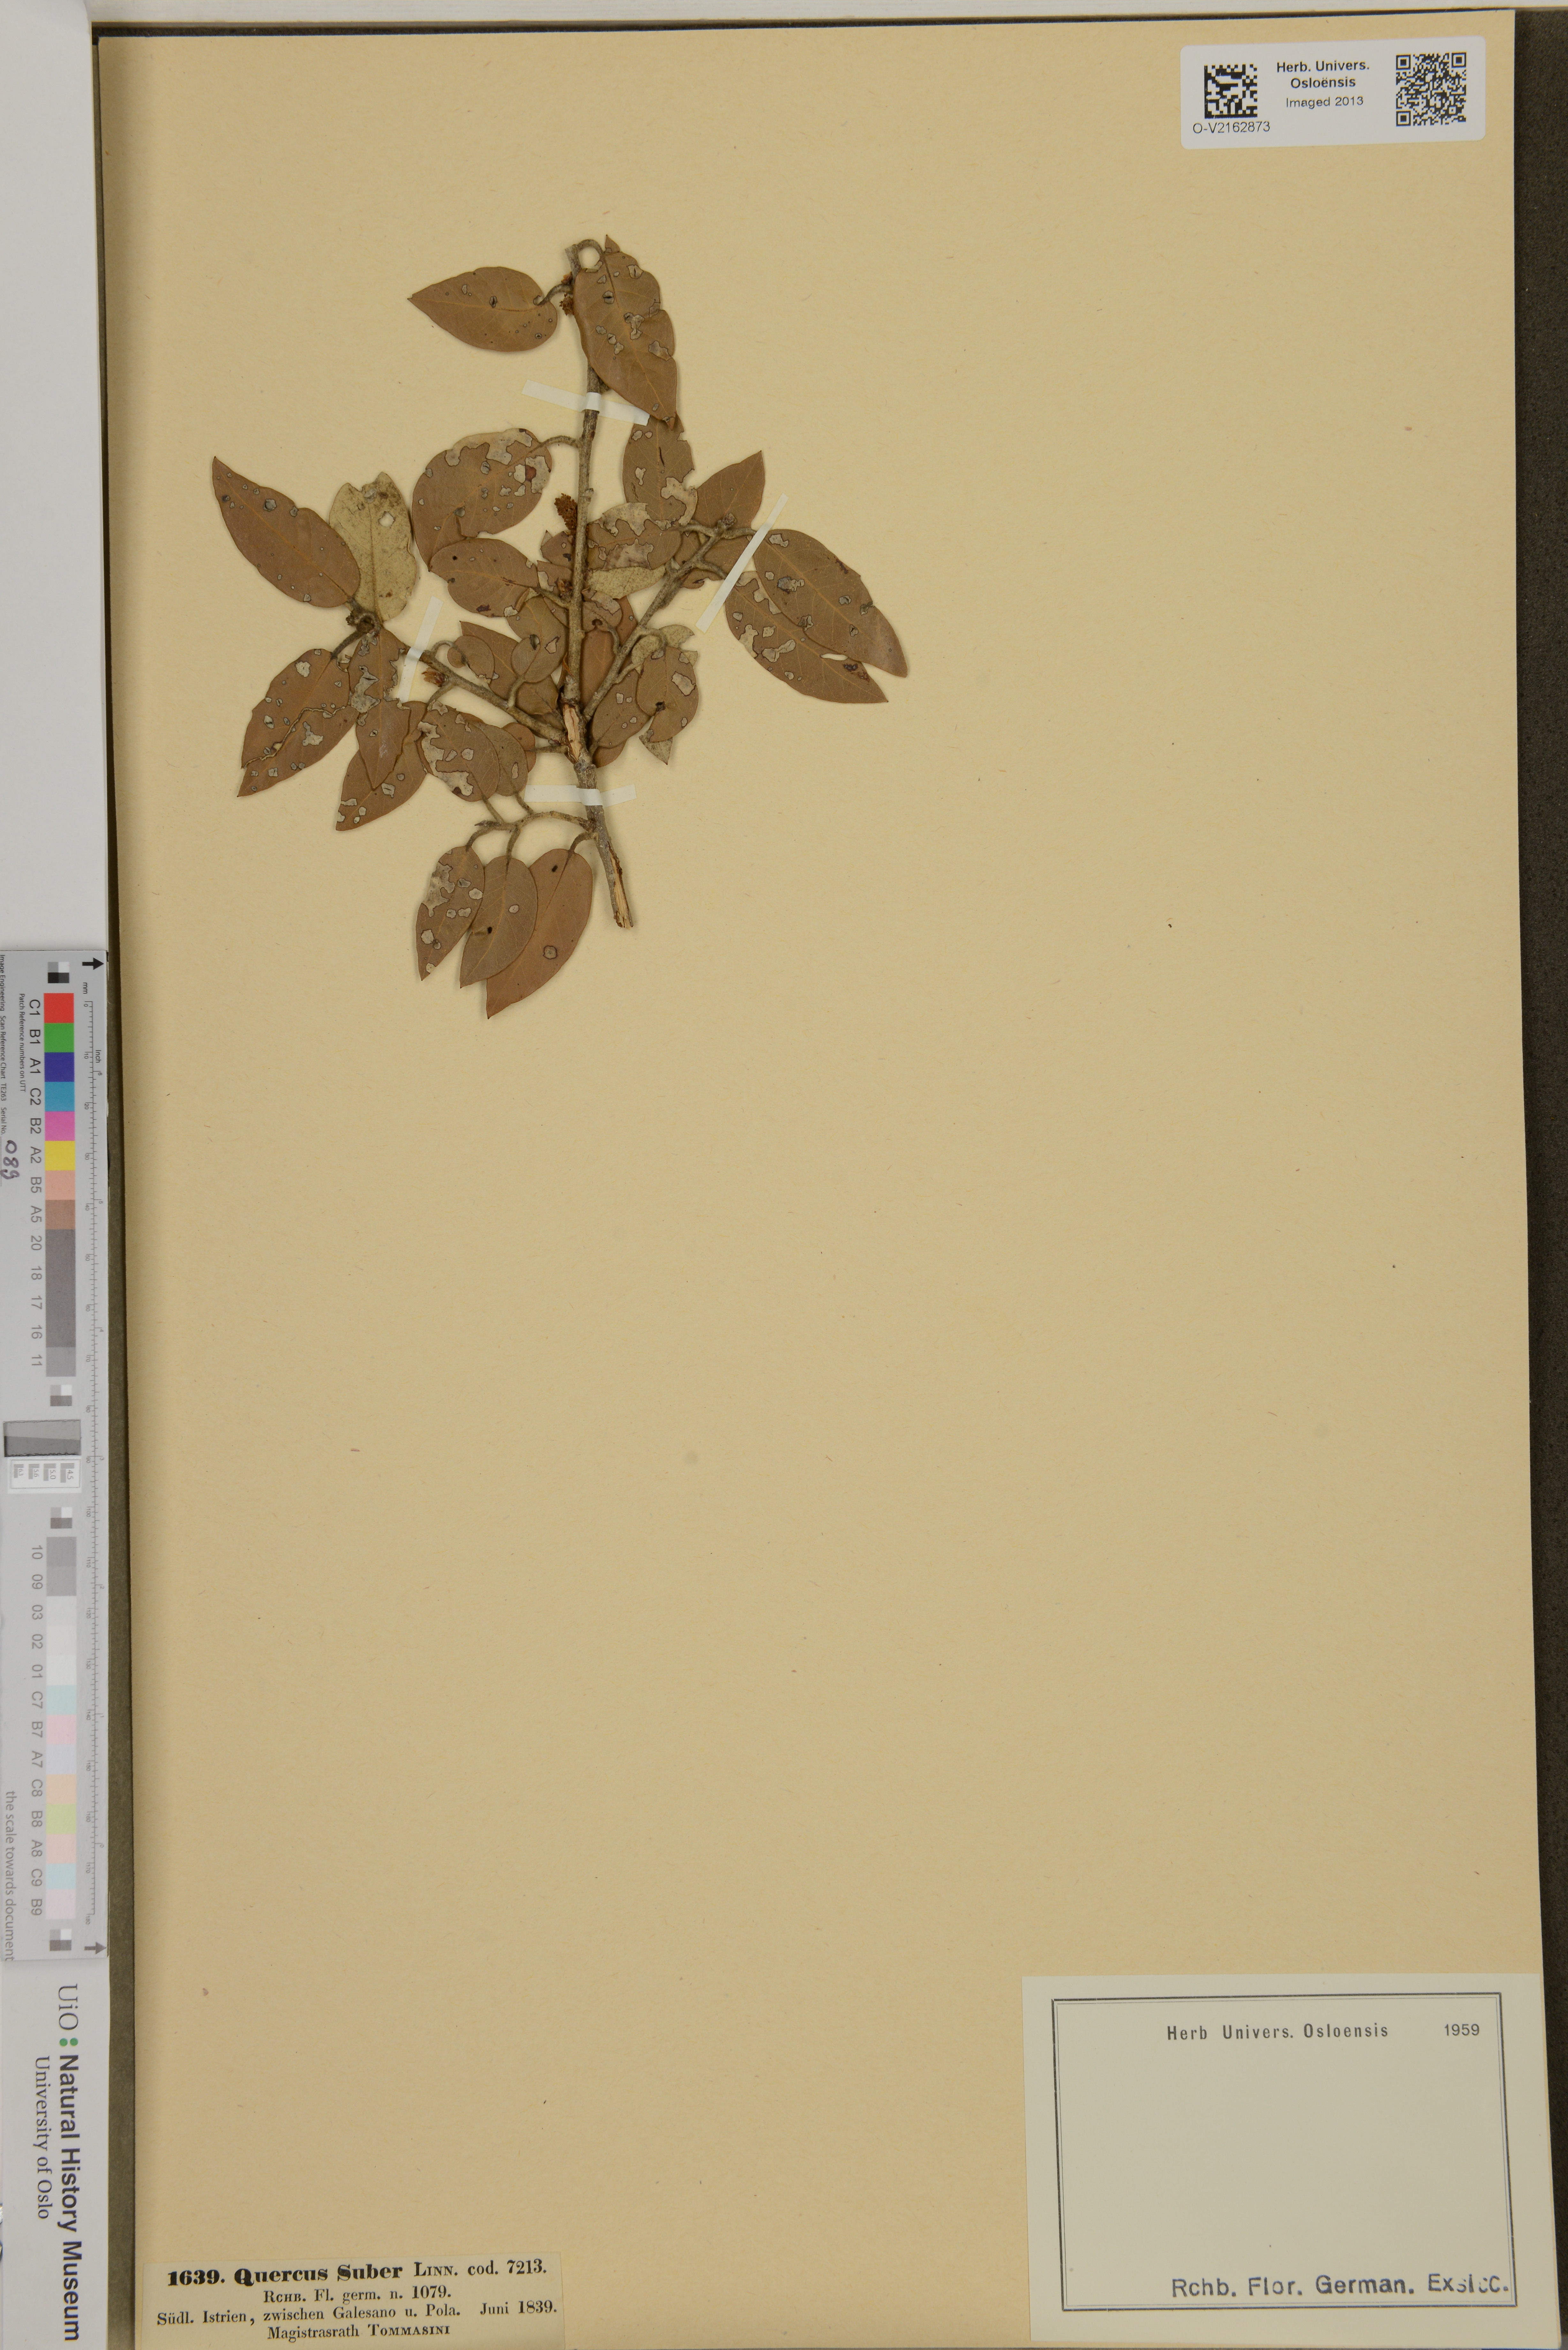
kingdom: Plantae
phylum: Tracheophyta
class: Magnoliopsida
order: Fagales
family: Fagaceae
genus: Quercus
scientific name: Quercus suber
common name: Cork oak
